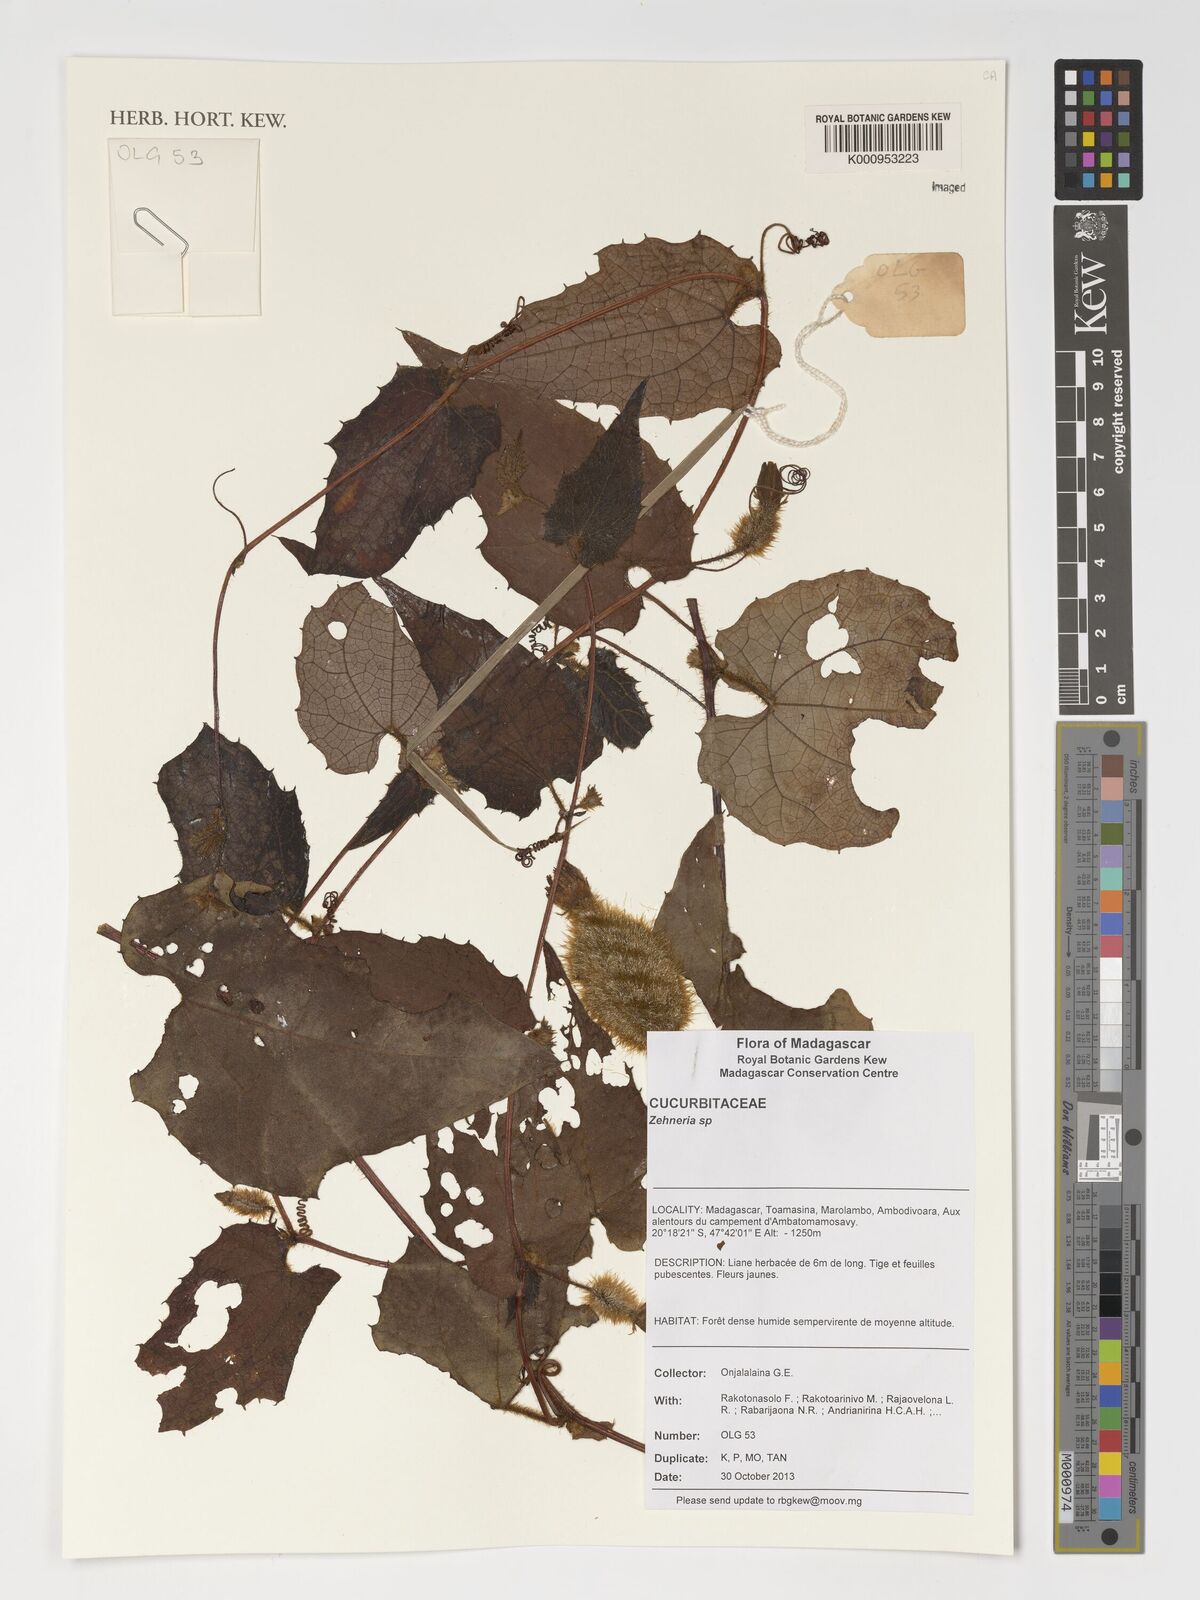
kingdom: Plantae
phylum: Tracheophyta
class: Magnoliopsida
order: Cucurbitales
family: Cucurbitaceae
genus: Zehneria
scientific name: Zehneria
